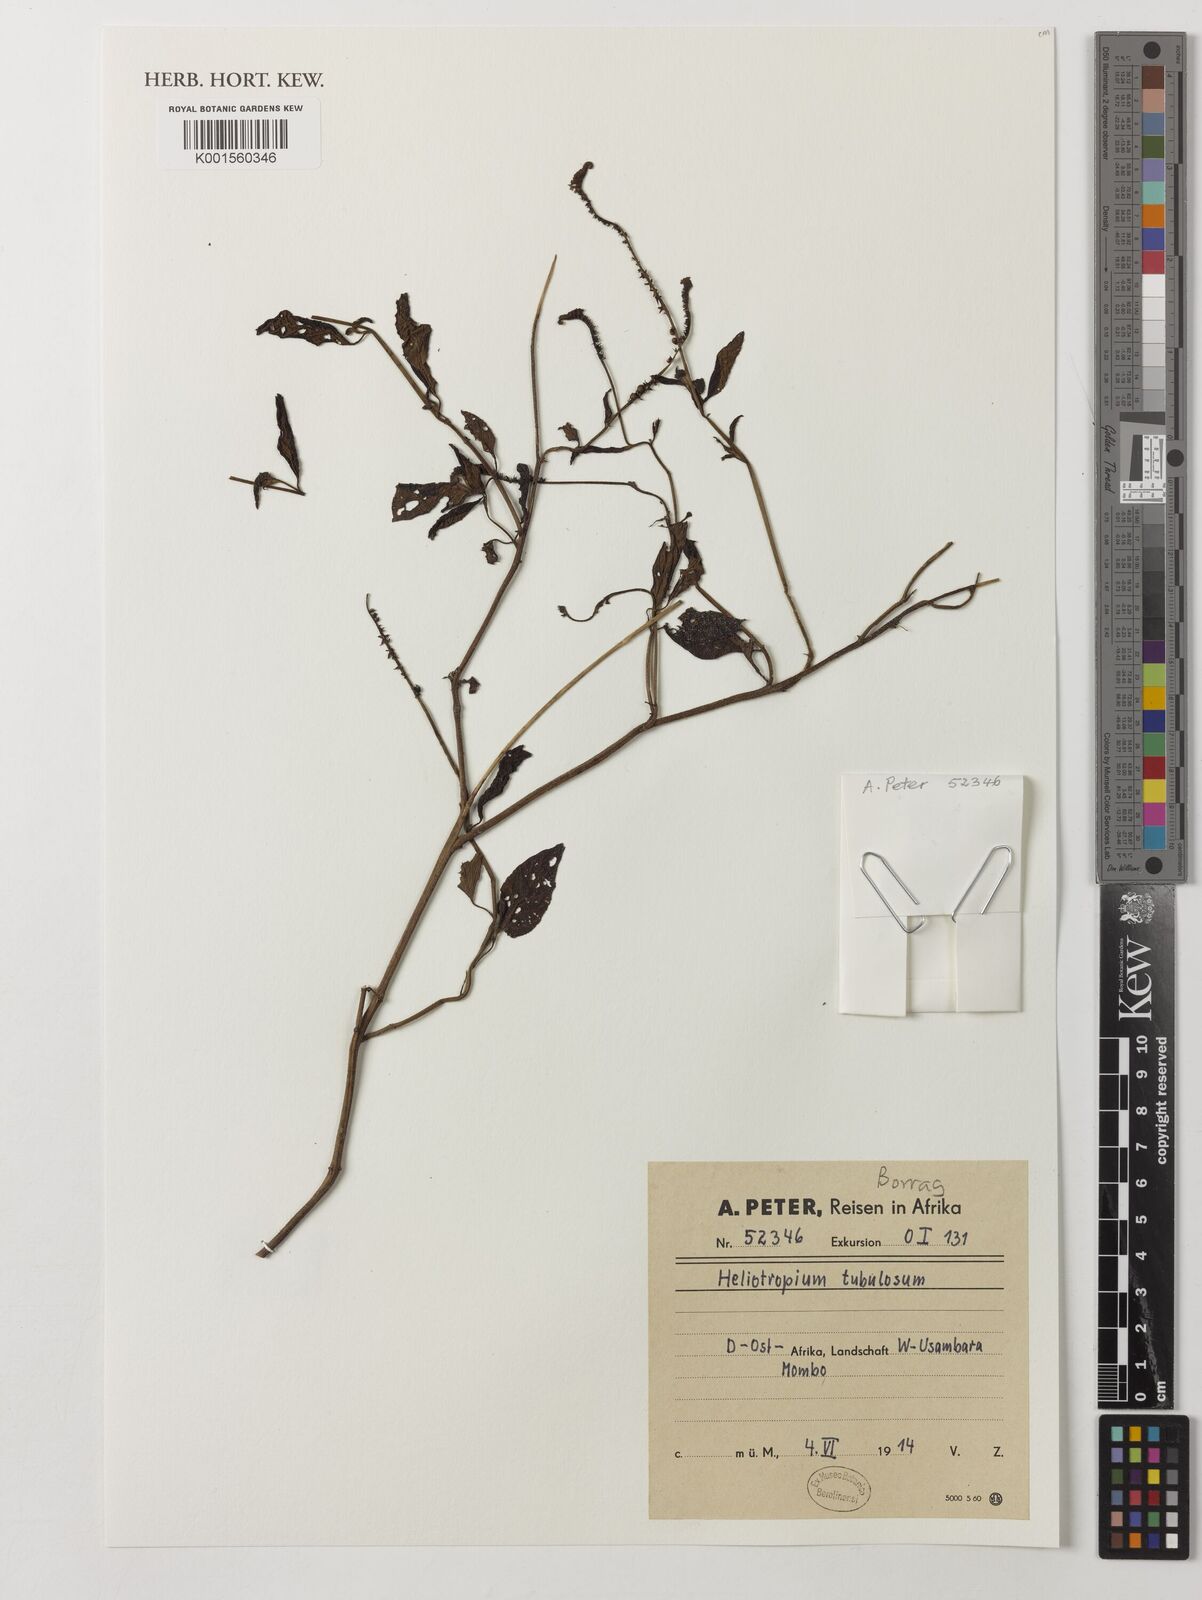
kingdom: Plantae
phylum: Tracheophyta
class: Magnoliopsida
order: Boraginales
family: Heliotropiaceae
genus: Heliotropium
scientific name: Heliotropium tubulosum
